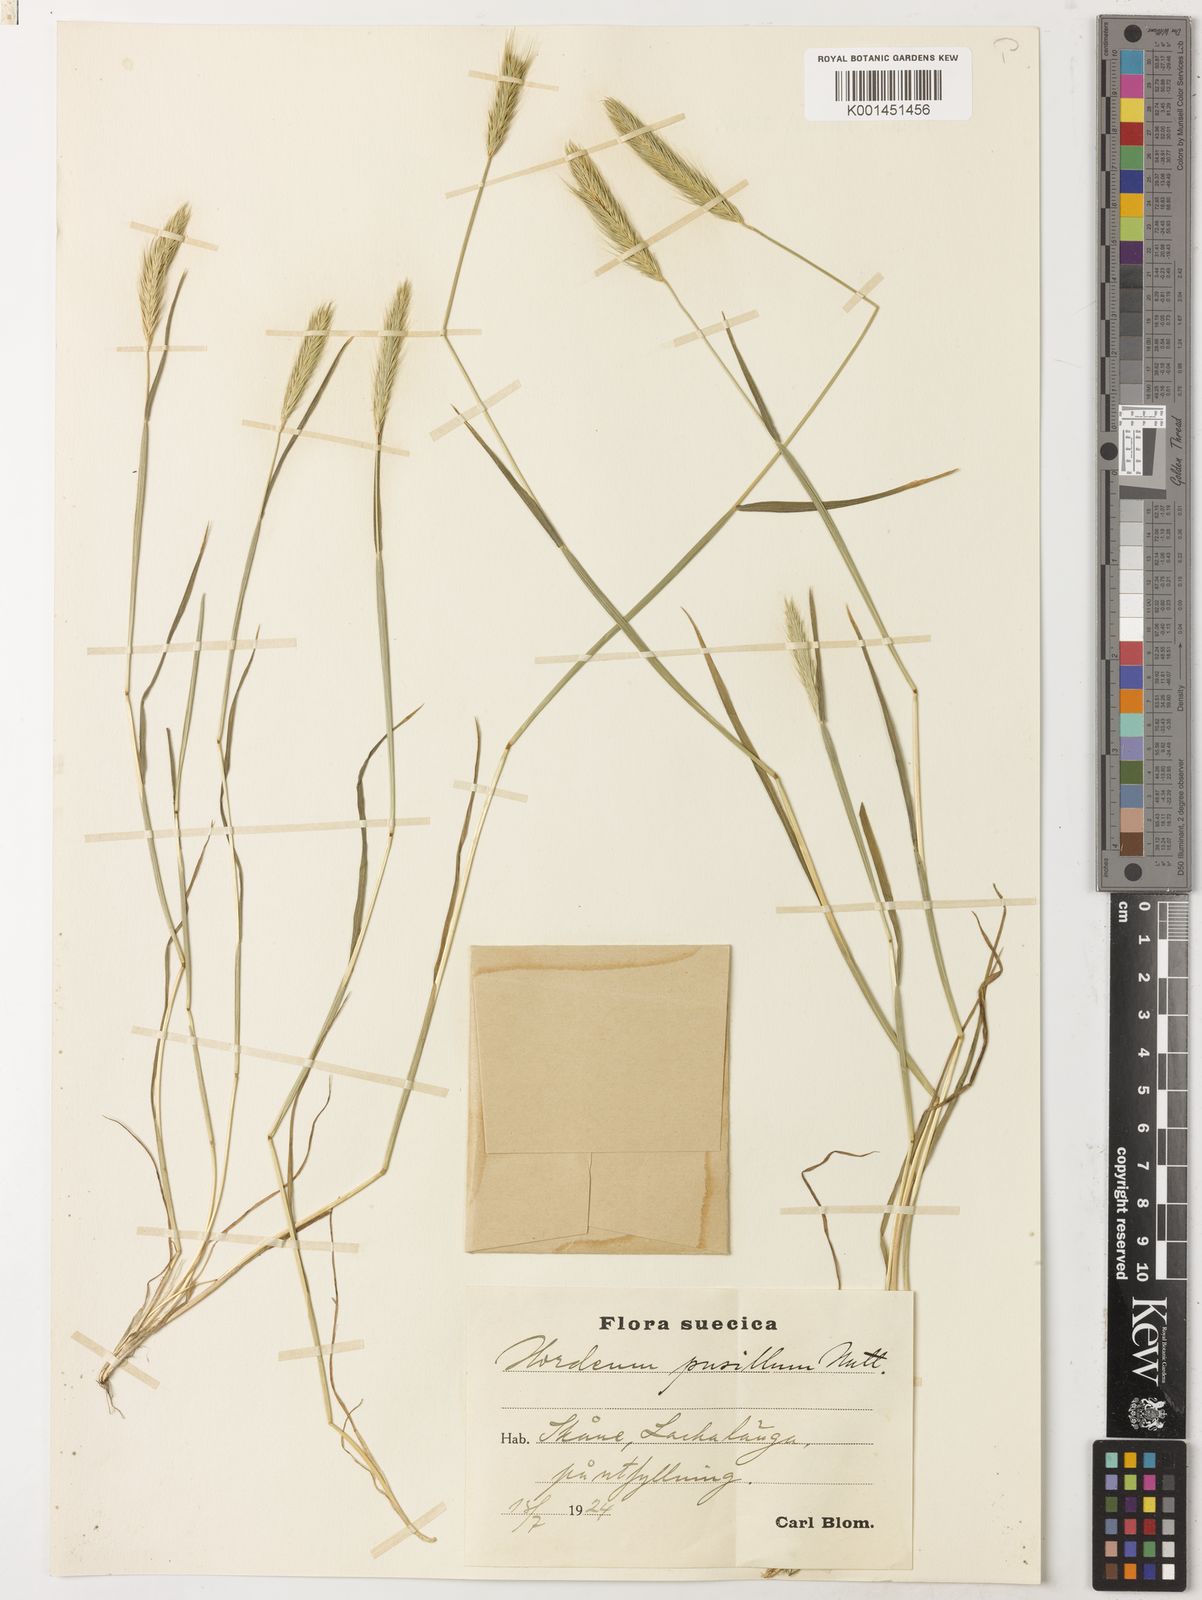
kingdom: Plantae
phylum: Tracheophyta
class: Liliopsida
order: Poales
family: Poaceae
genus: Hordeum
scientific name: Hordeum pusillum
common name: Little barley
